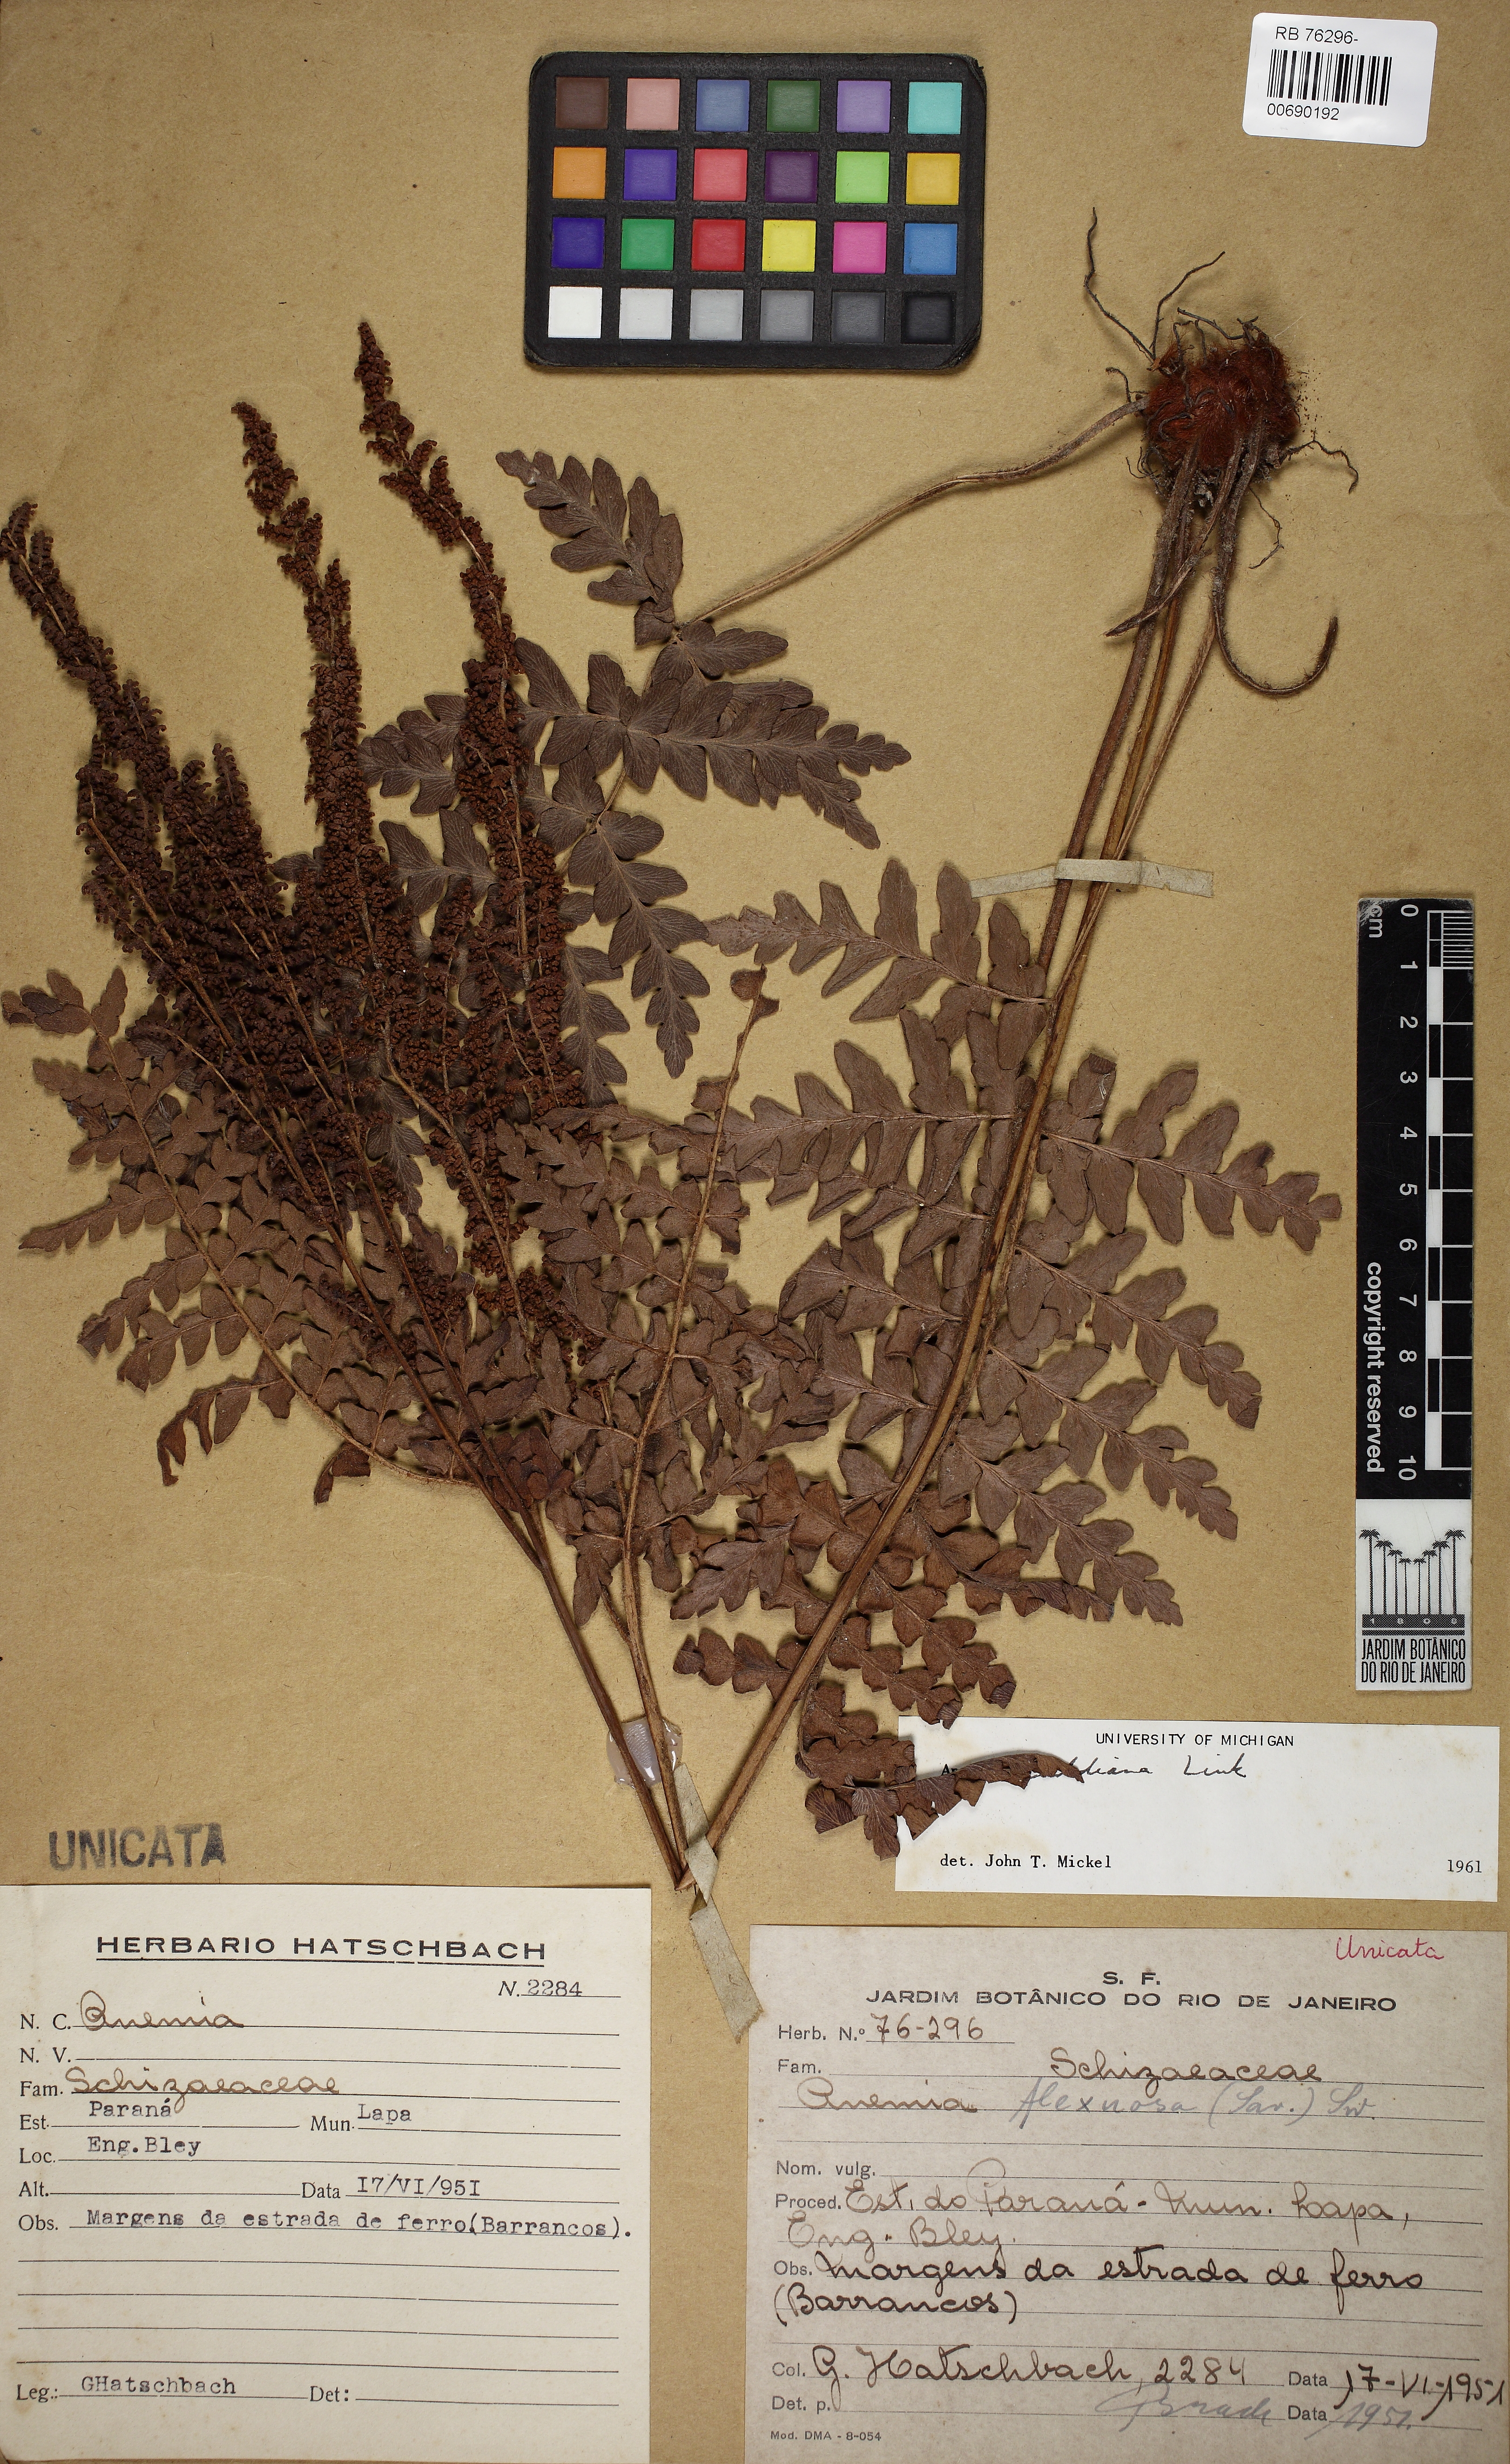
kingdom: Plantae
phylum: Tracheophyta
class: Polypodiopsida
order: Schizaeales
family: Anemiaceae
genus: Anemia
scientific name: Anemia raddiana
